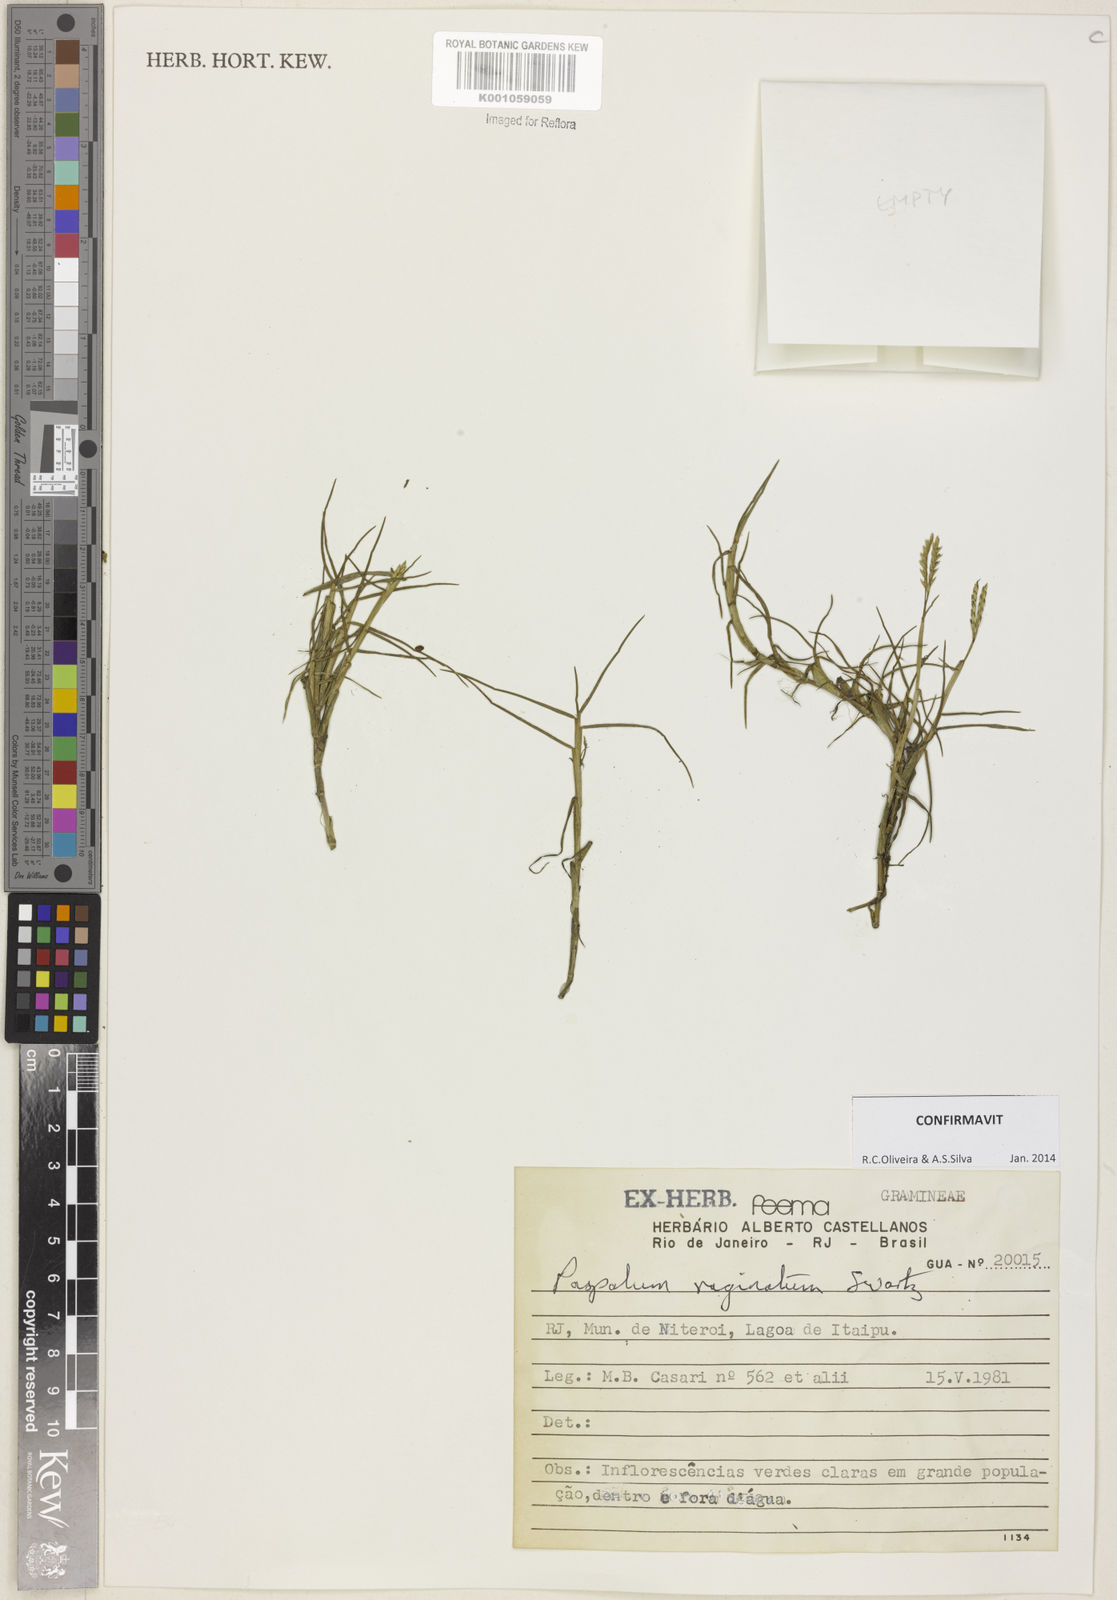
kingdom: Plantae
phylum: Tracheophyta
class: Liliopsida
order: Poales
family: Poaceae
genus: Paspalum
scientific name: Paspalum vaginatum
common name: Seashore paspalum
